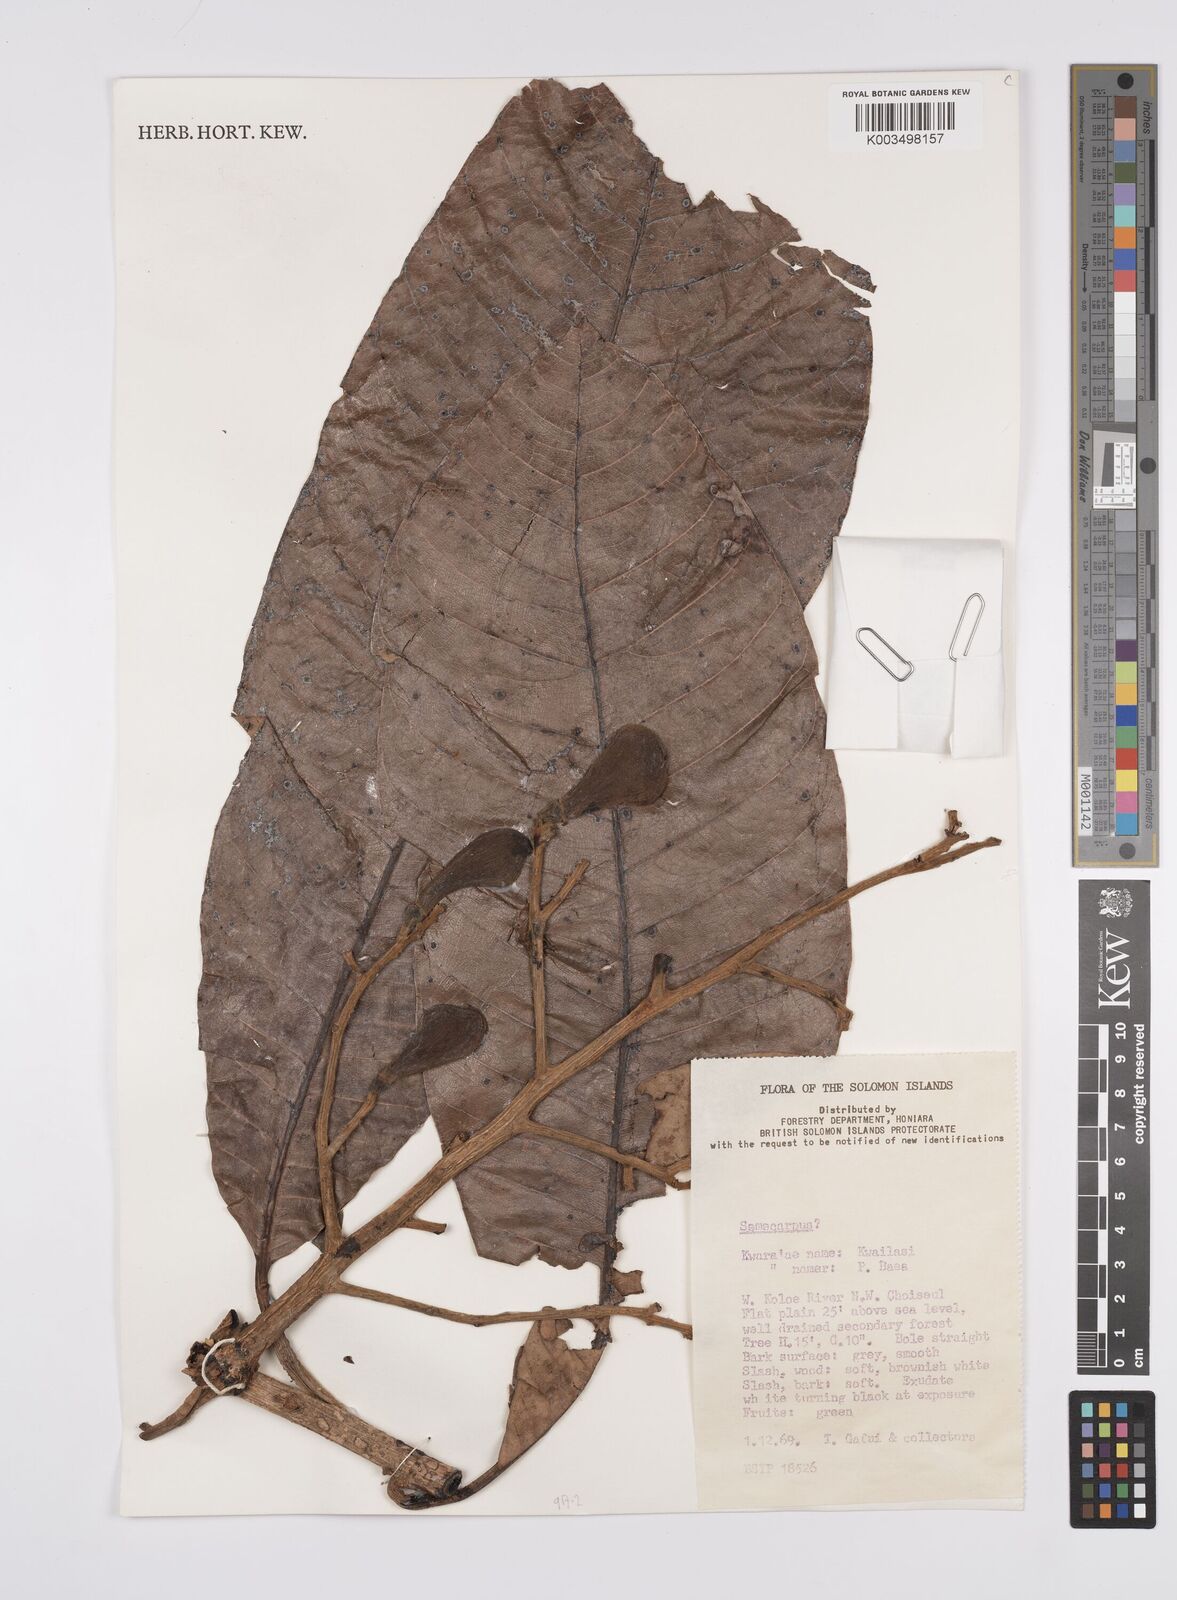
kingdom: Plantae
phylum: Tracheophyta
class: Magnoliopsida
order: Sapindales
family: Anacardiaceae
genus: Semecarpus
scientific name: Semecarpus
